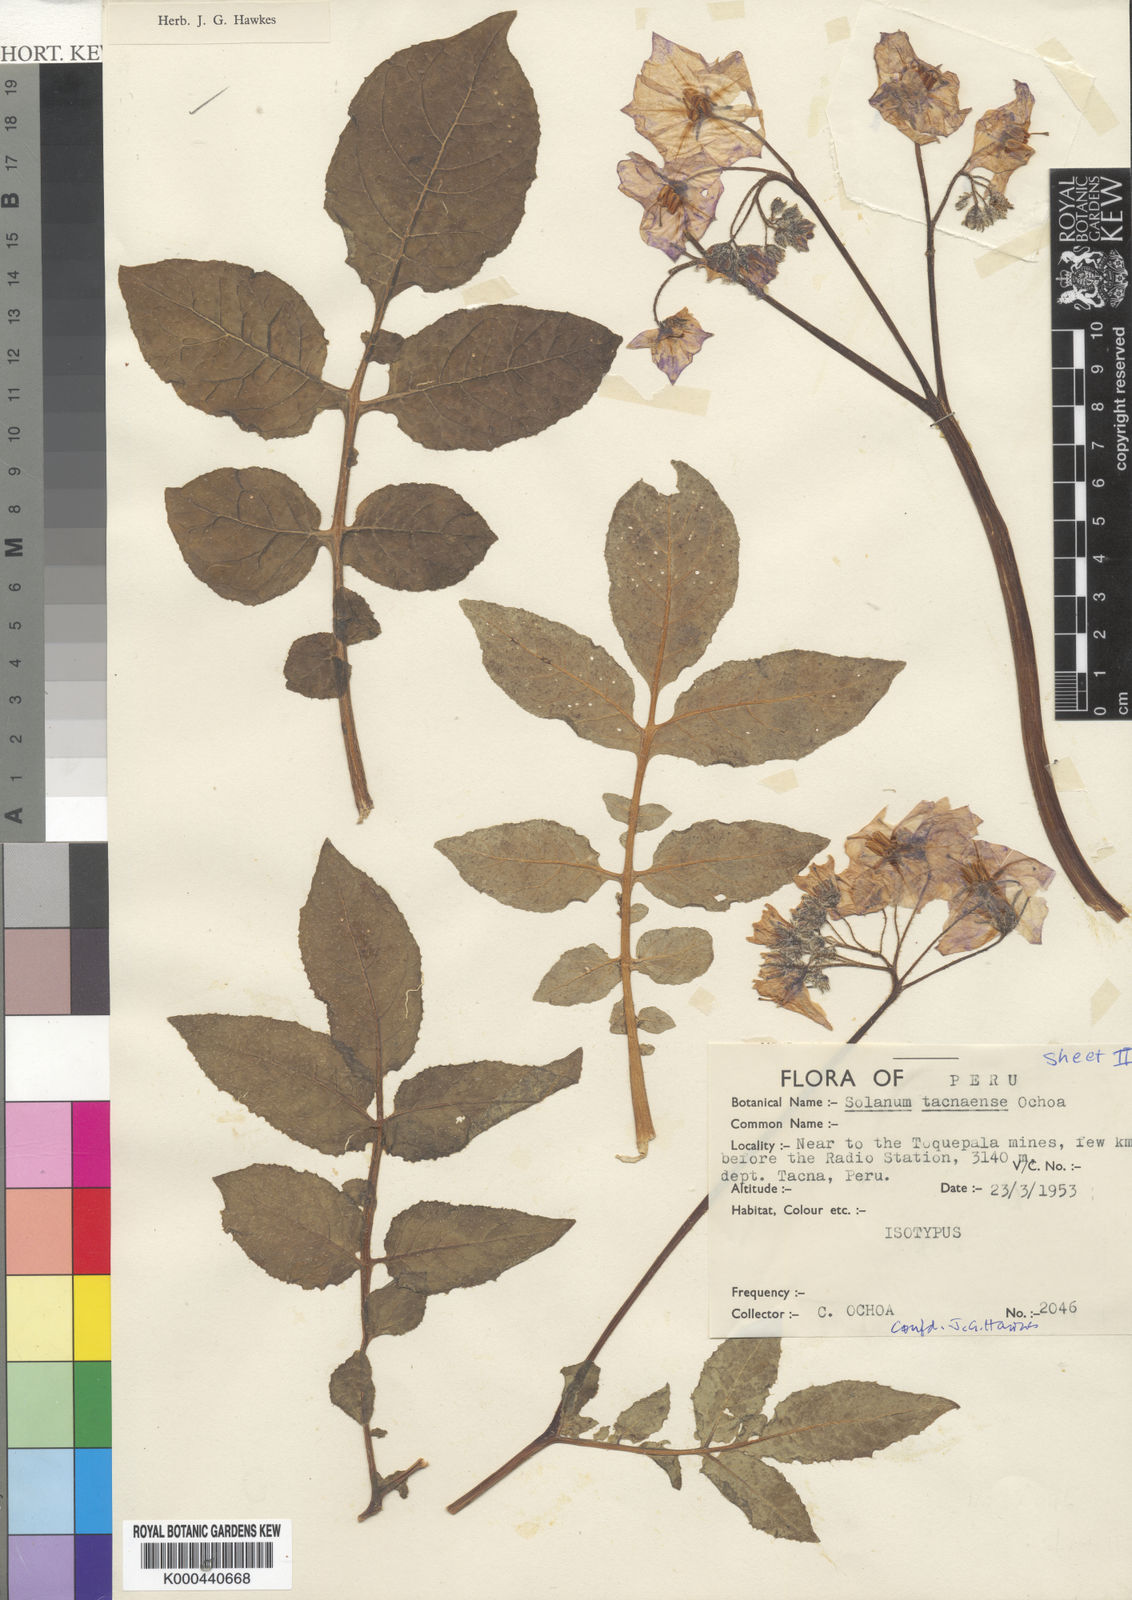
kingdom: Plantae
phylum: Tracheophyta
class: Magnoliopsida
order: Solanales
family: Solanaceae
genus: Solanum
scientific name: Solanum medians
